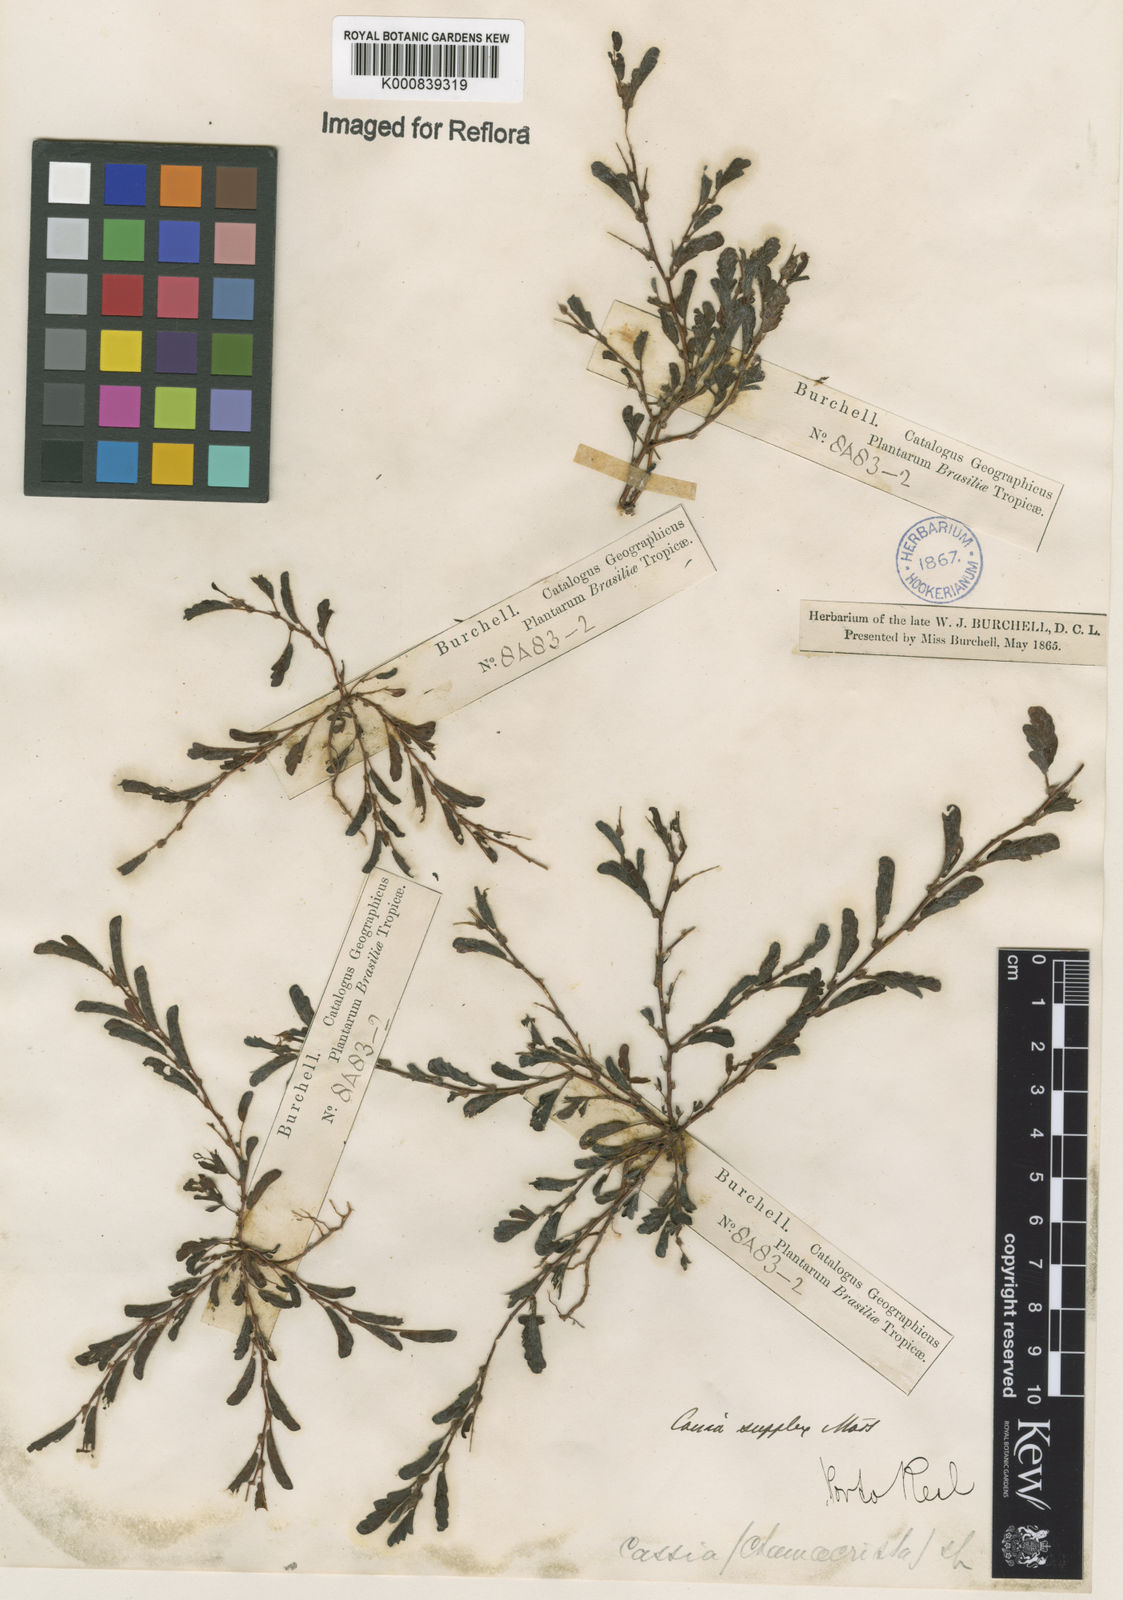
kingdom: Plantae
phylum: Tracheophyta
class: Magnoliopsida
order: Fabales
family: Fabaceae
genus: Chamaecrista
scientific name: Chamaecrista supplex
